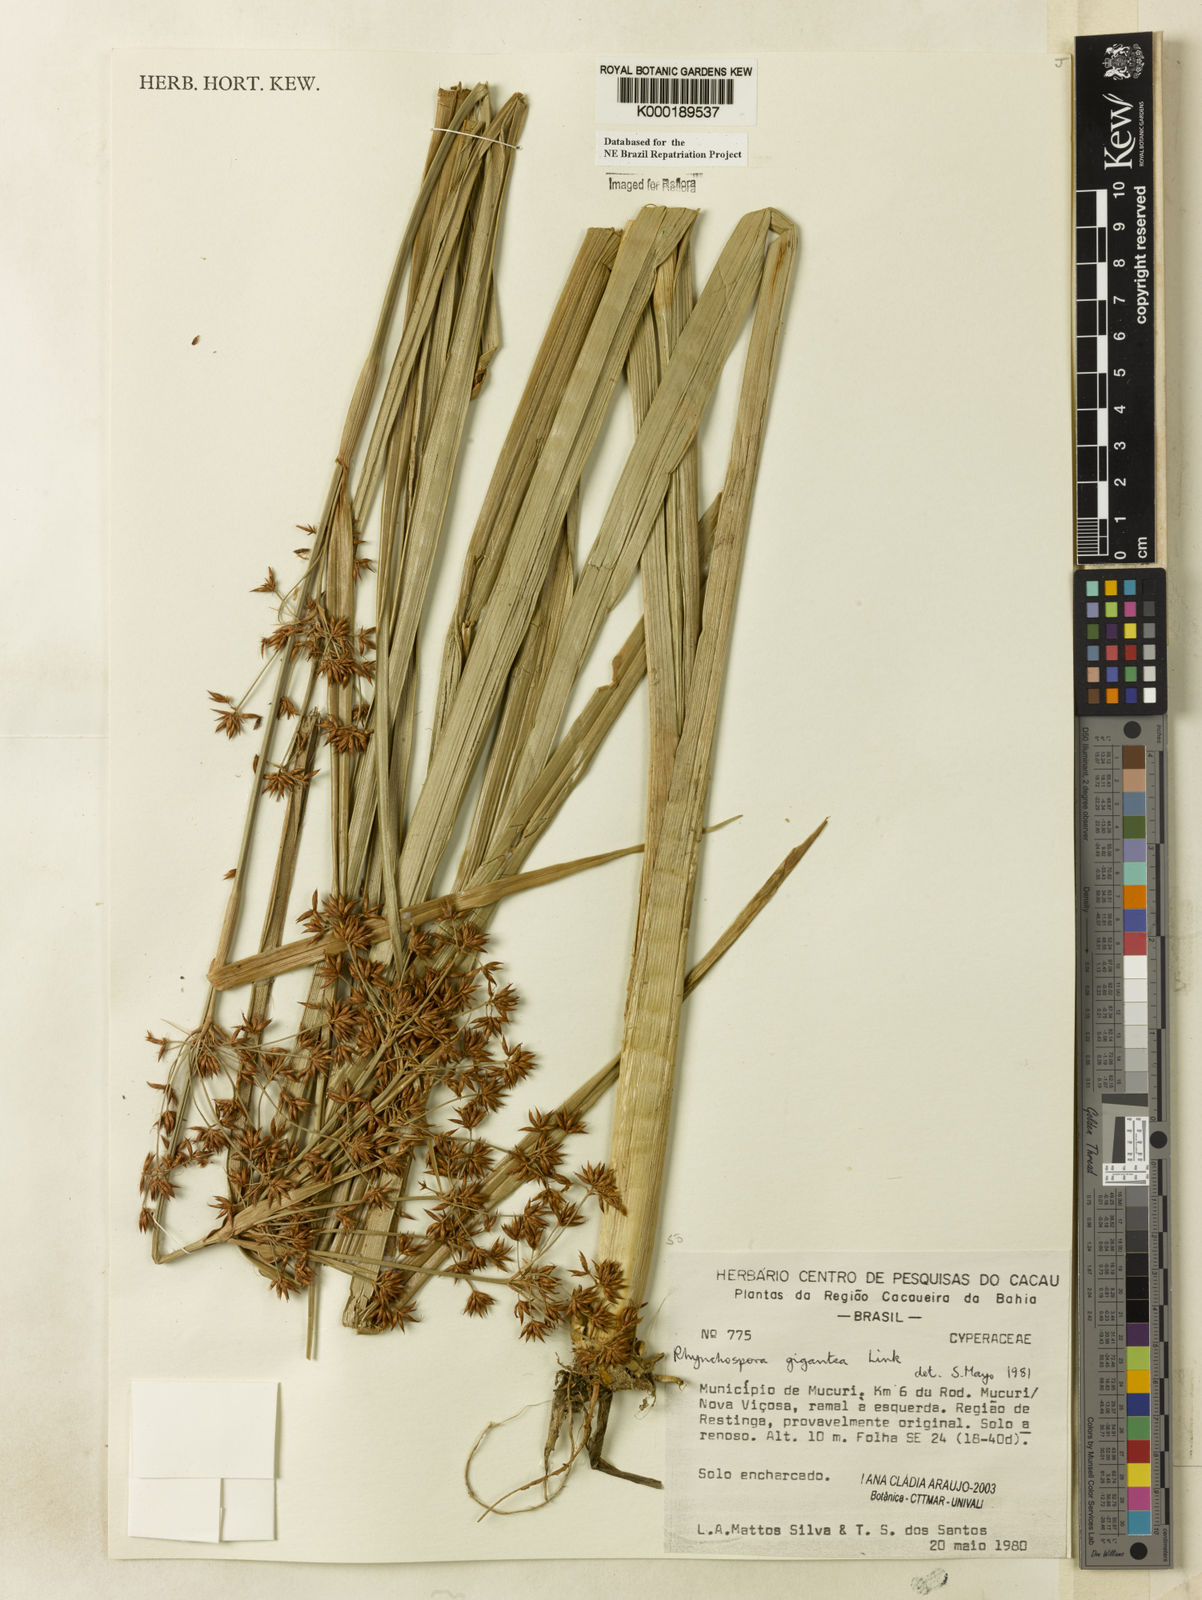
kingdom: Plantae
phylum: Tracheophyta
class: Liliopsida
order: Poales
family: Cyperaceae
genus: Rhynchospora
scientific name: Rhynchospora gigantea
